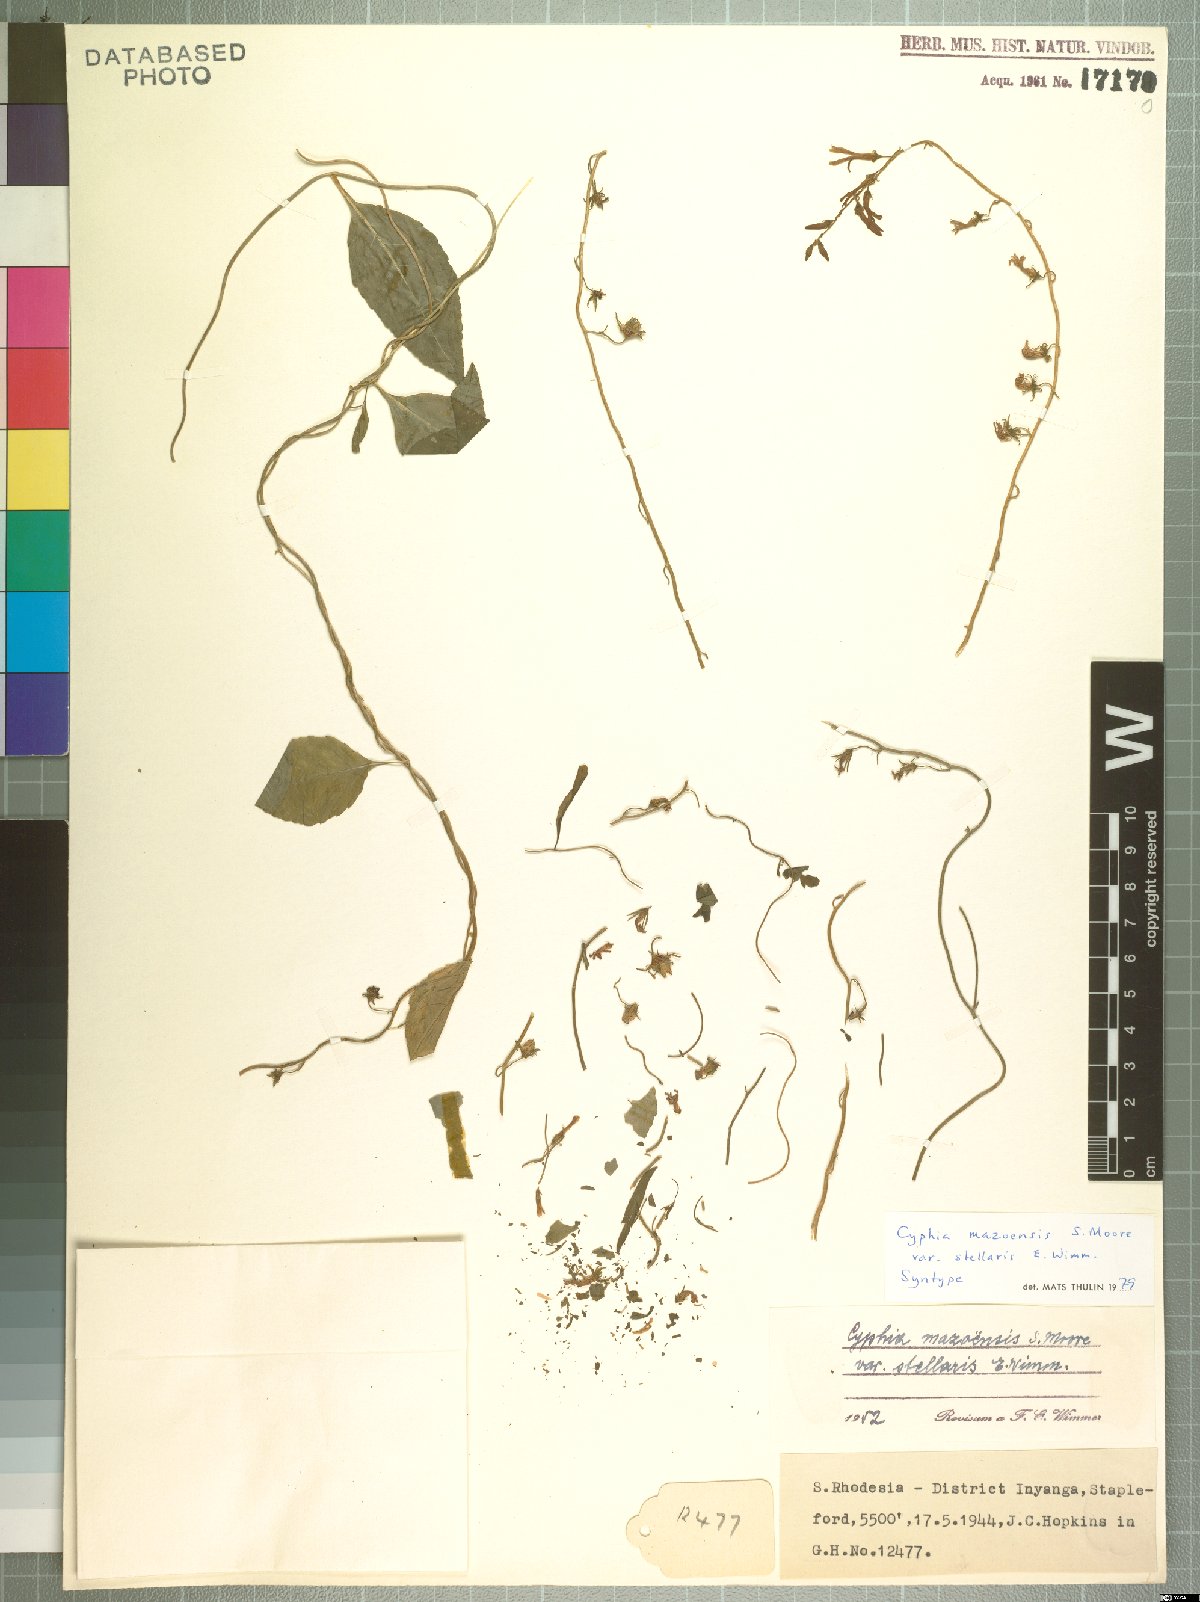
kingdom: Plantae
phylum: Tracheophyta
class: Magnoliopsida
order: Asterales
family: Campanulaceae
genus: Cyphia
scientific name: Cyphia mazoensis
